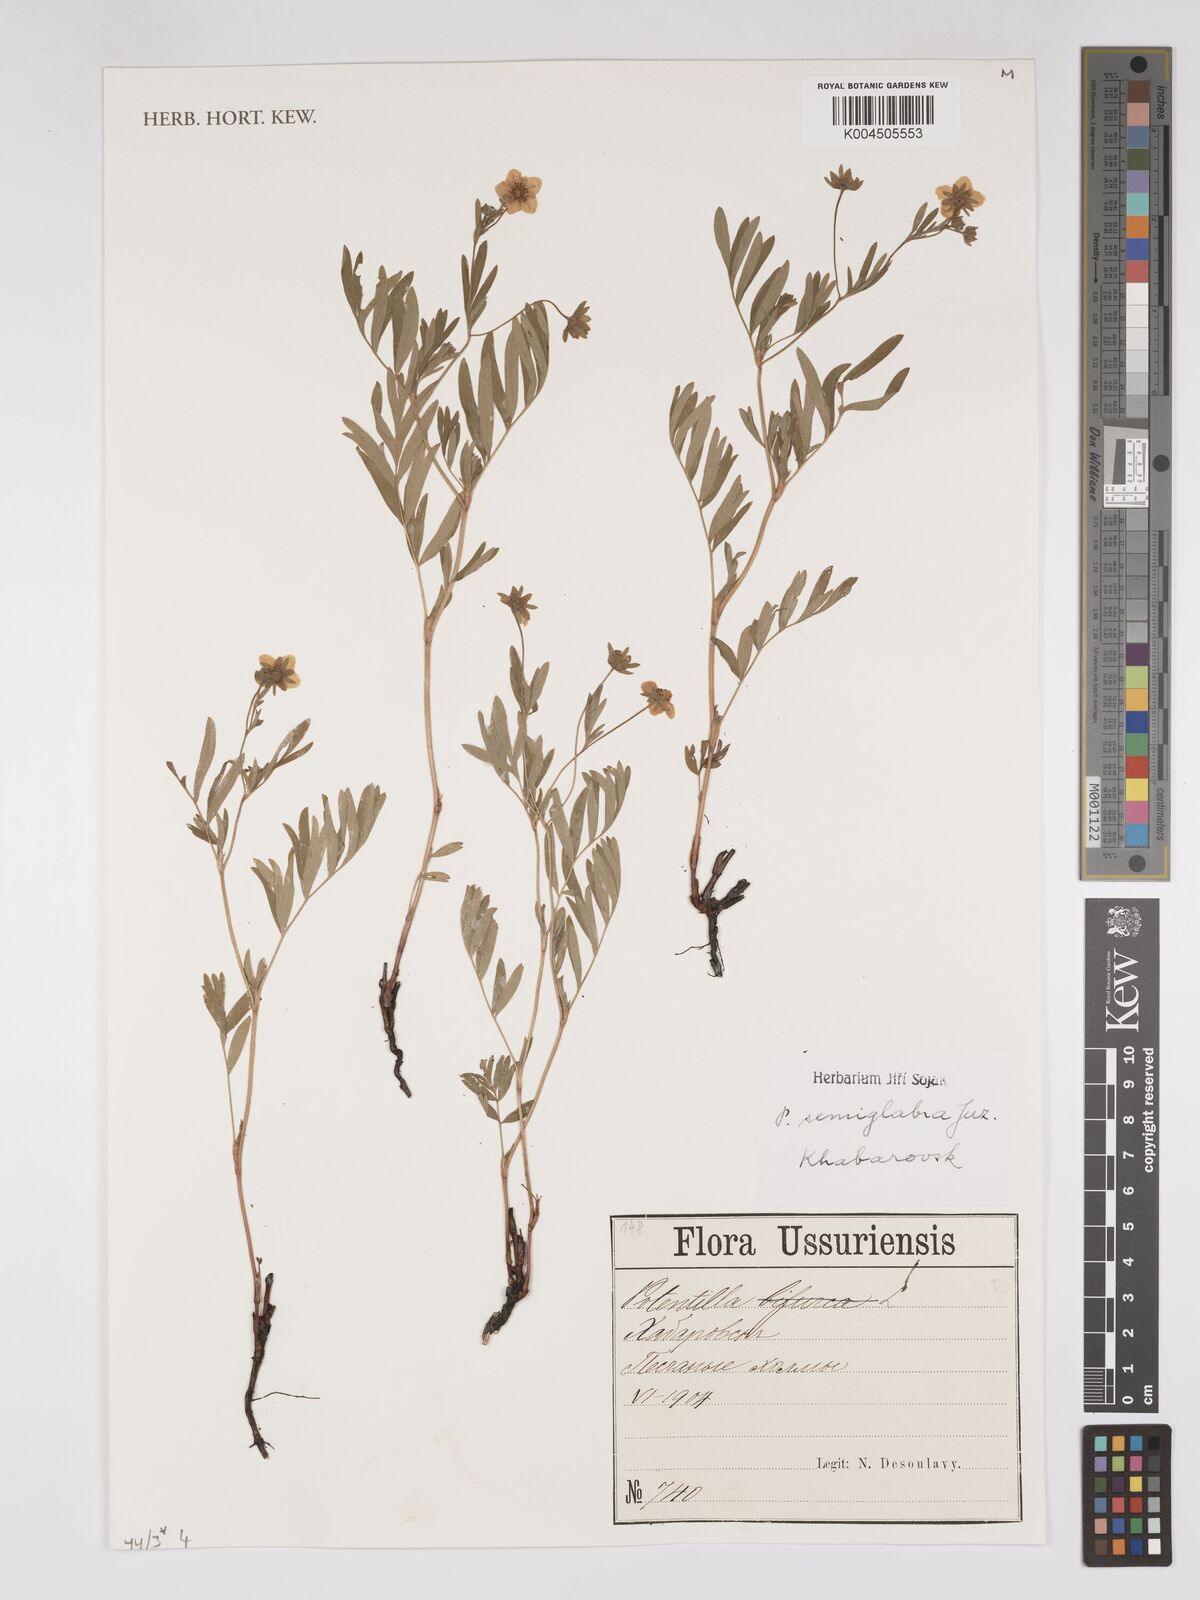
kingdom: Plantae
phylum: Tracheophyta
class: Magnoliopsida
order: Rosales
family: Rosaceae
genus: Sibbaldianthe
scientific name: Sibbaldianthe semiglabra
